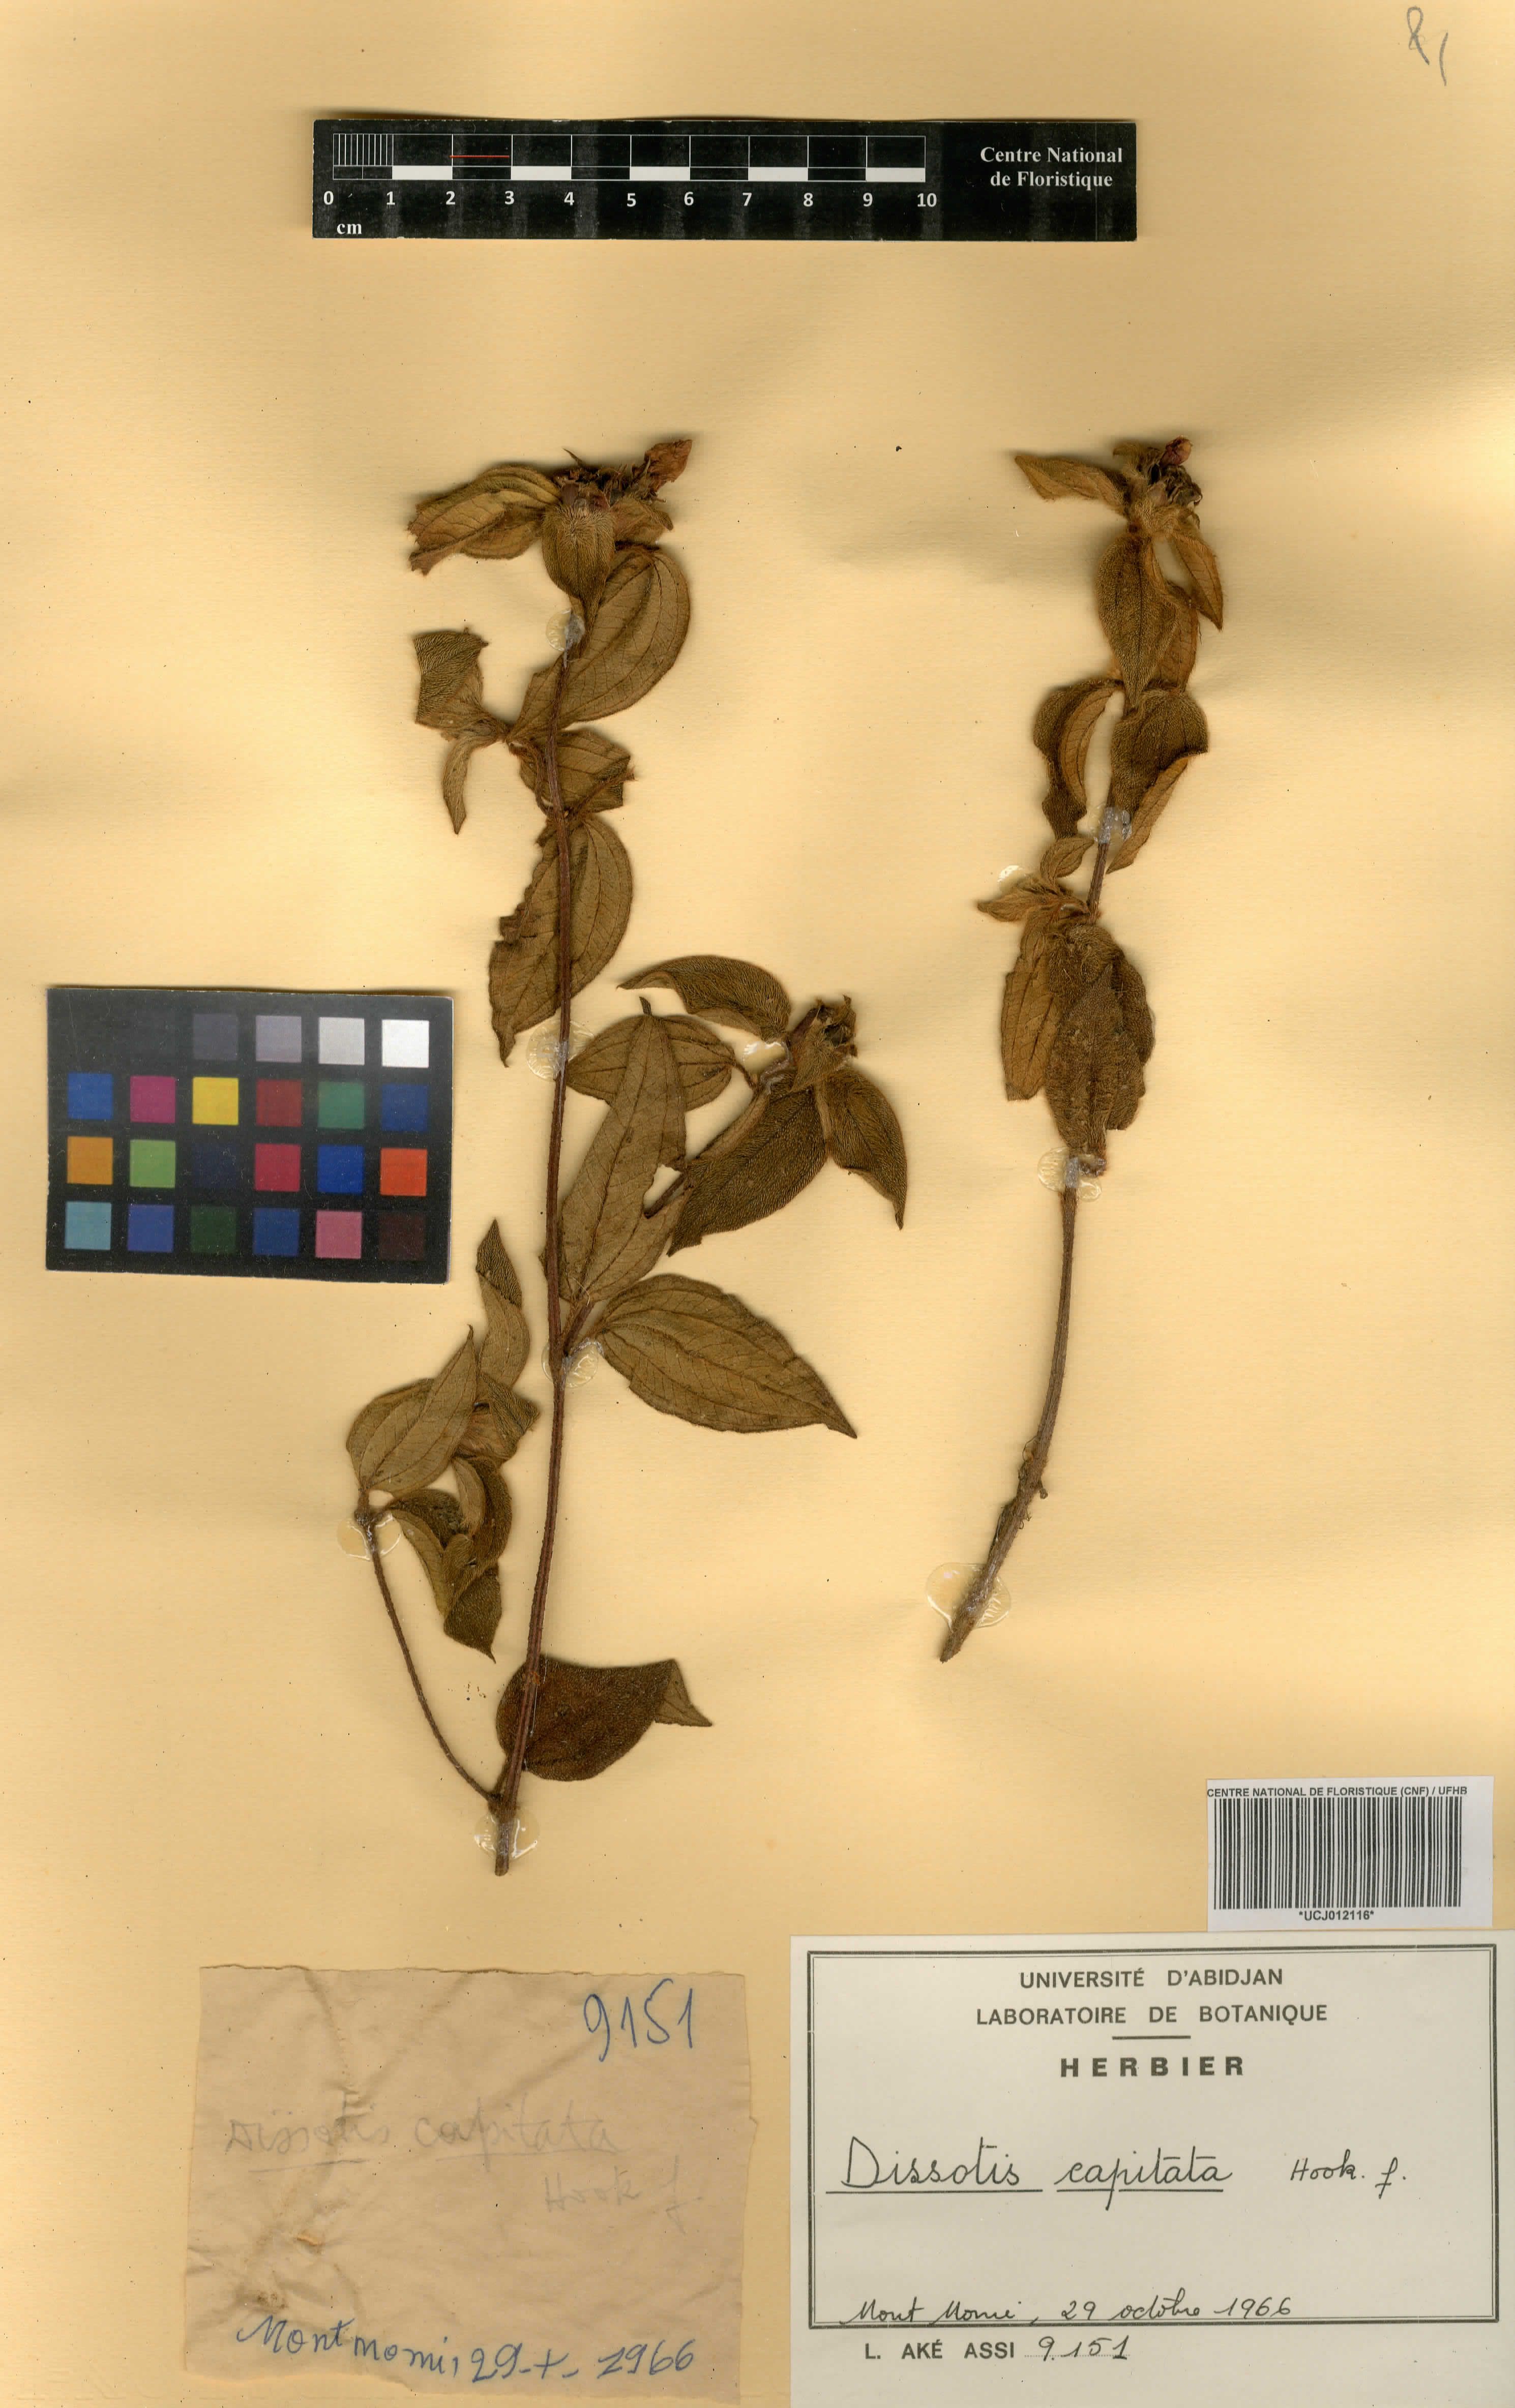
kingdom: Plantae
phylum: Tracheophyta
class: Magnoliopsida
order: Myrtales
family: Melastomataceae
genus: Melastomastrum
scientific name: Melastomastrum capitatum
